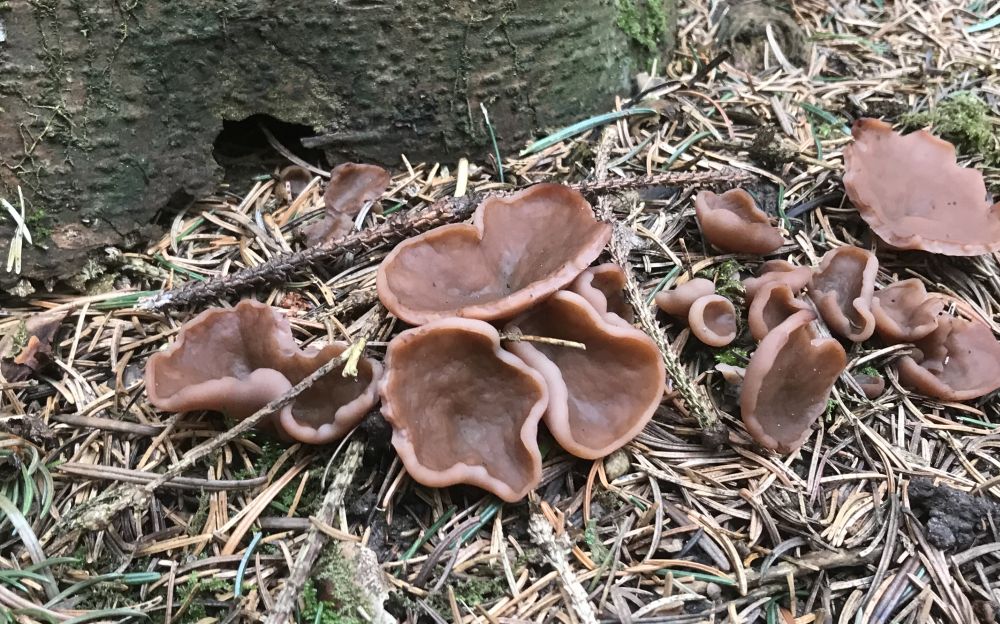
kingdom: Fungi
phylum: Ascomycota
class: Pezizomycetes
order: Pezizales
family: Discinaceae
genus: Discina
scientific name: Discina ancilis
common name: udbredt stenmorkel
